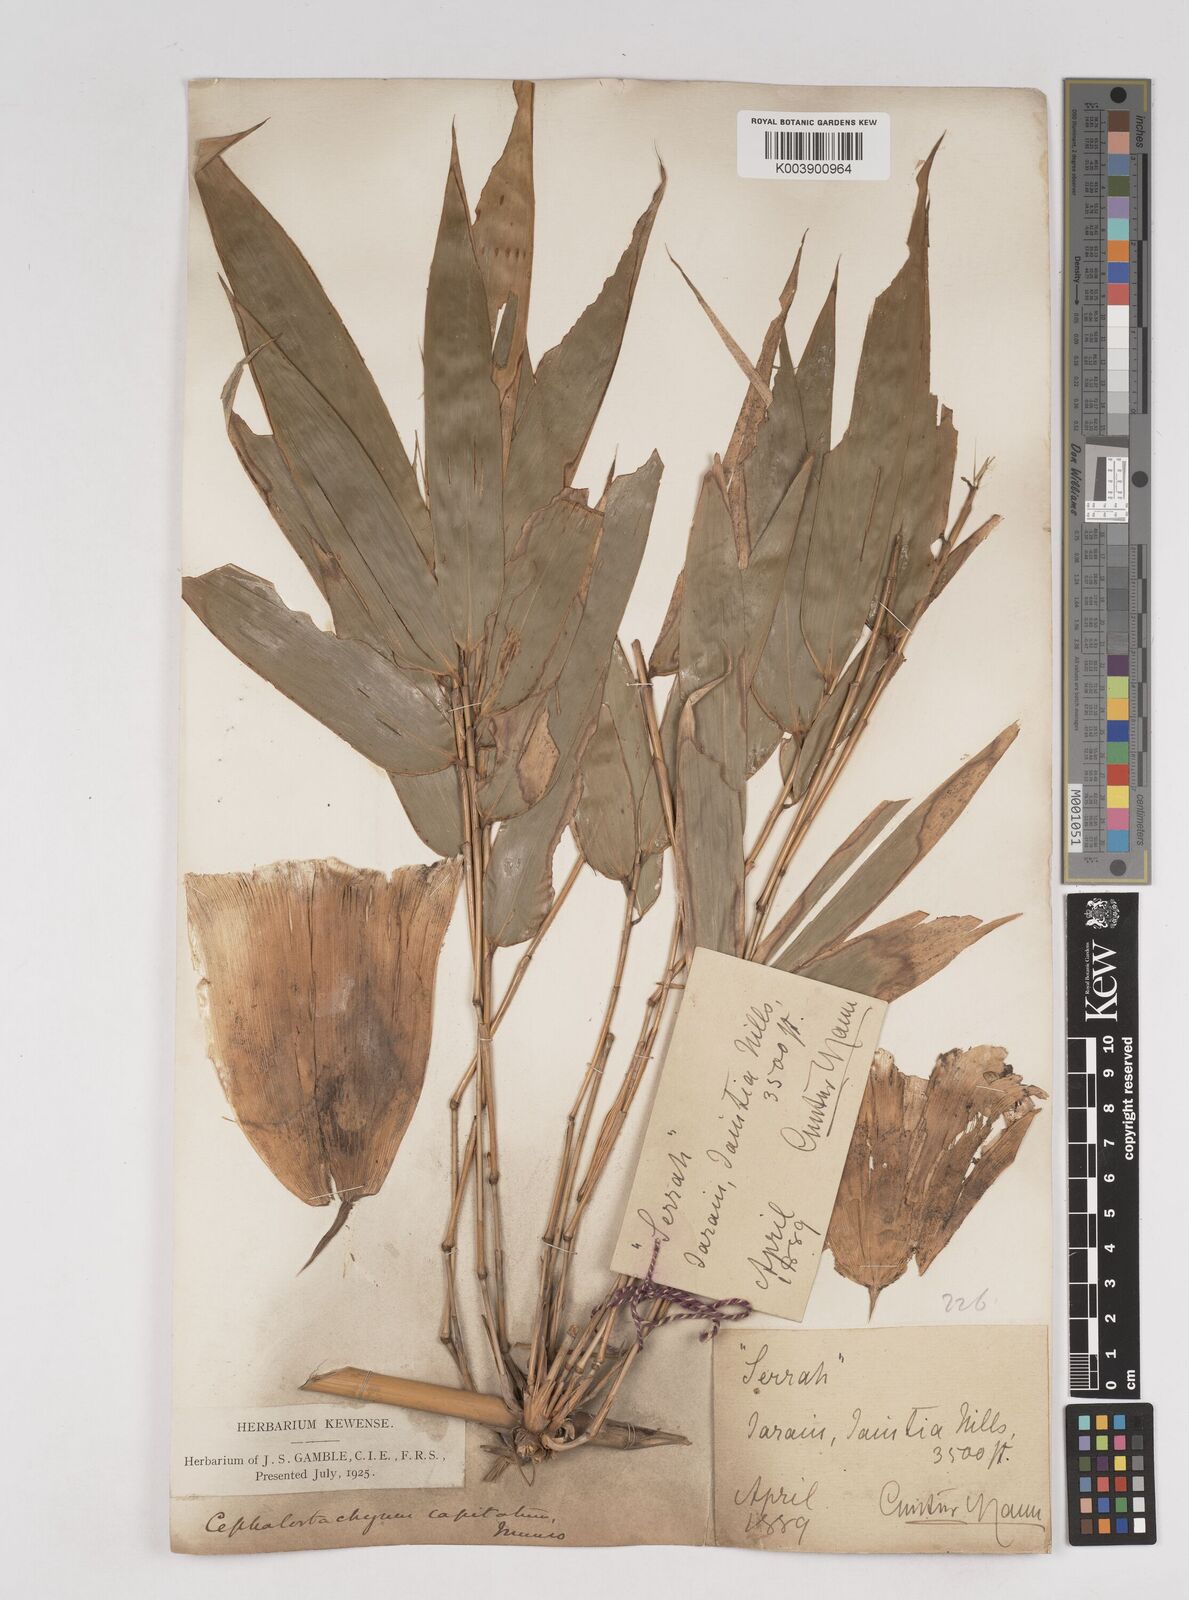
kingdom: Plantae
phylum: Tracheophyta
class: Liliopsida
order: Poales
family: Poaceae
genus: Cephalostachyum
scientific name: Cephalostachyum capitatum
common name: Hollow bamboo
